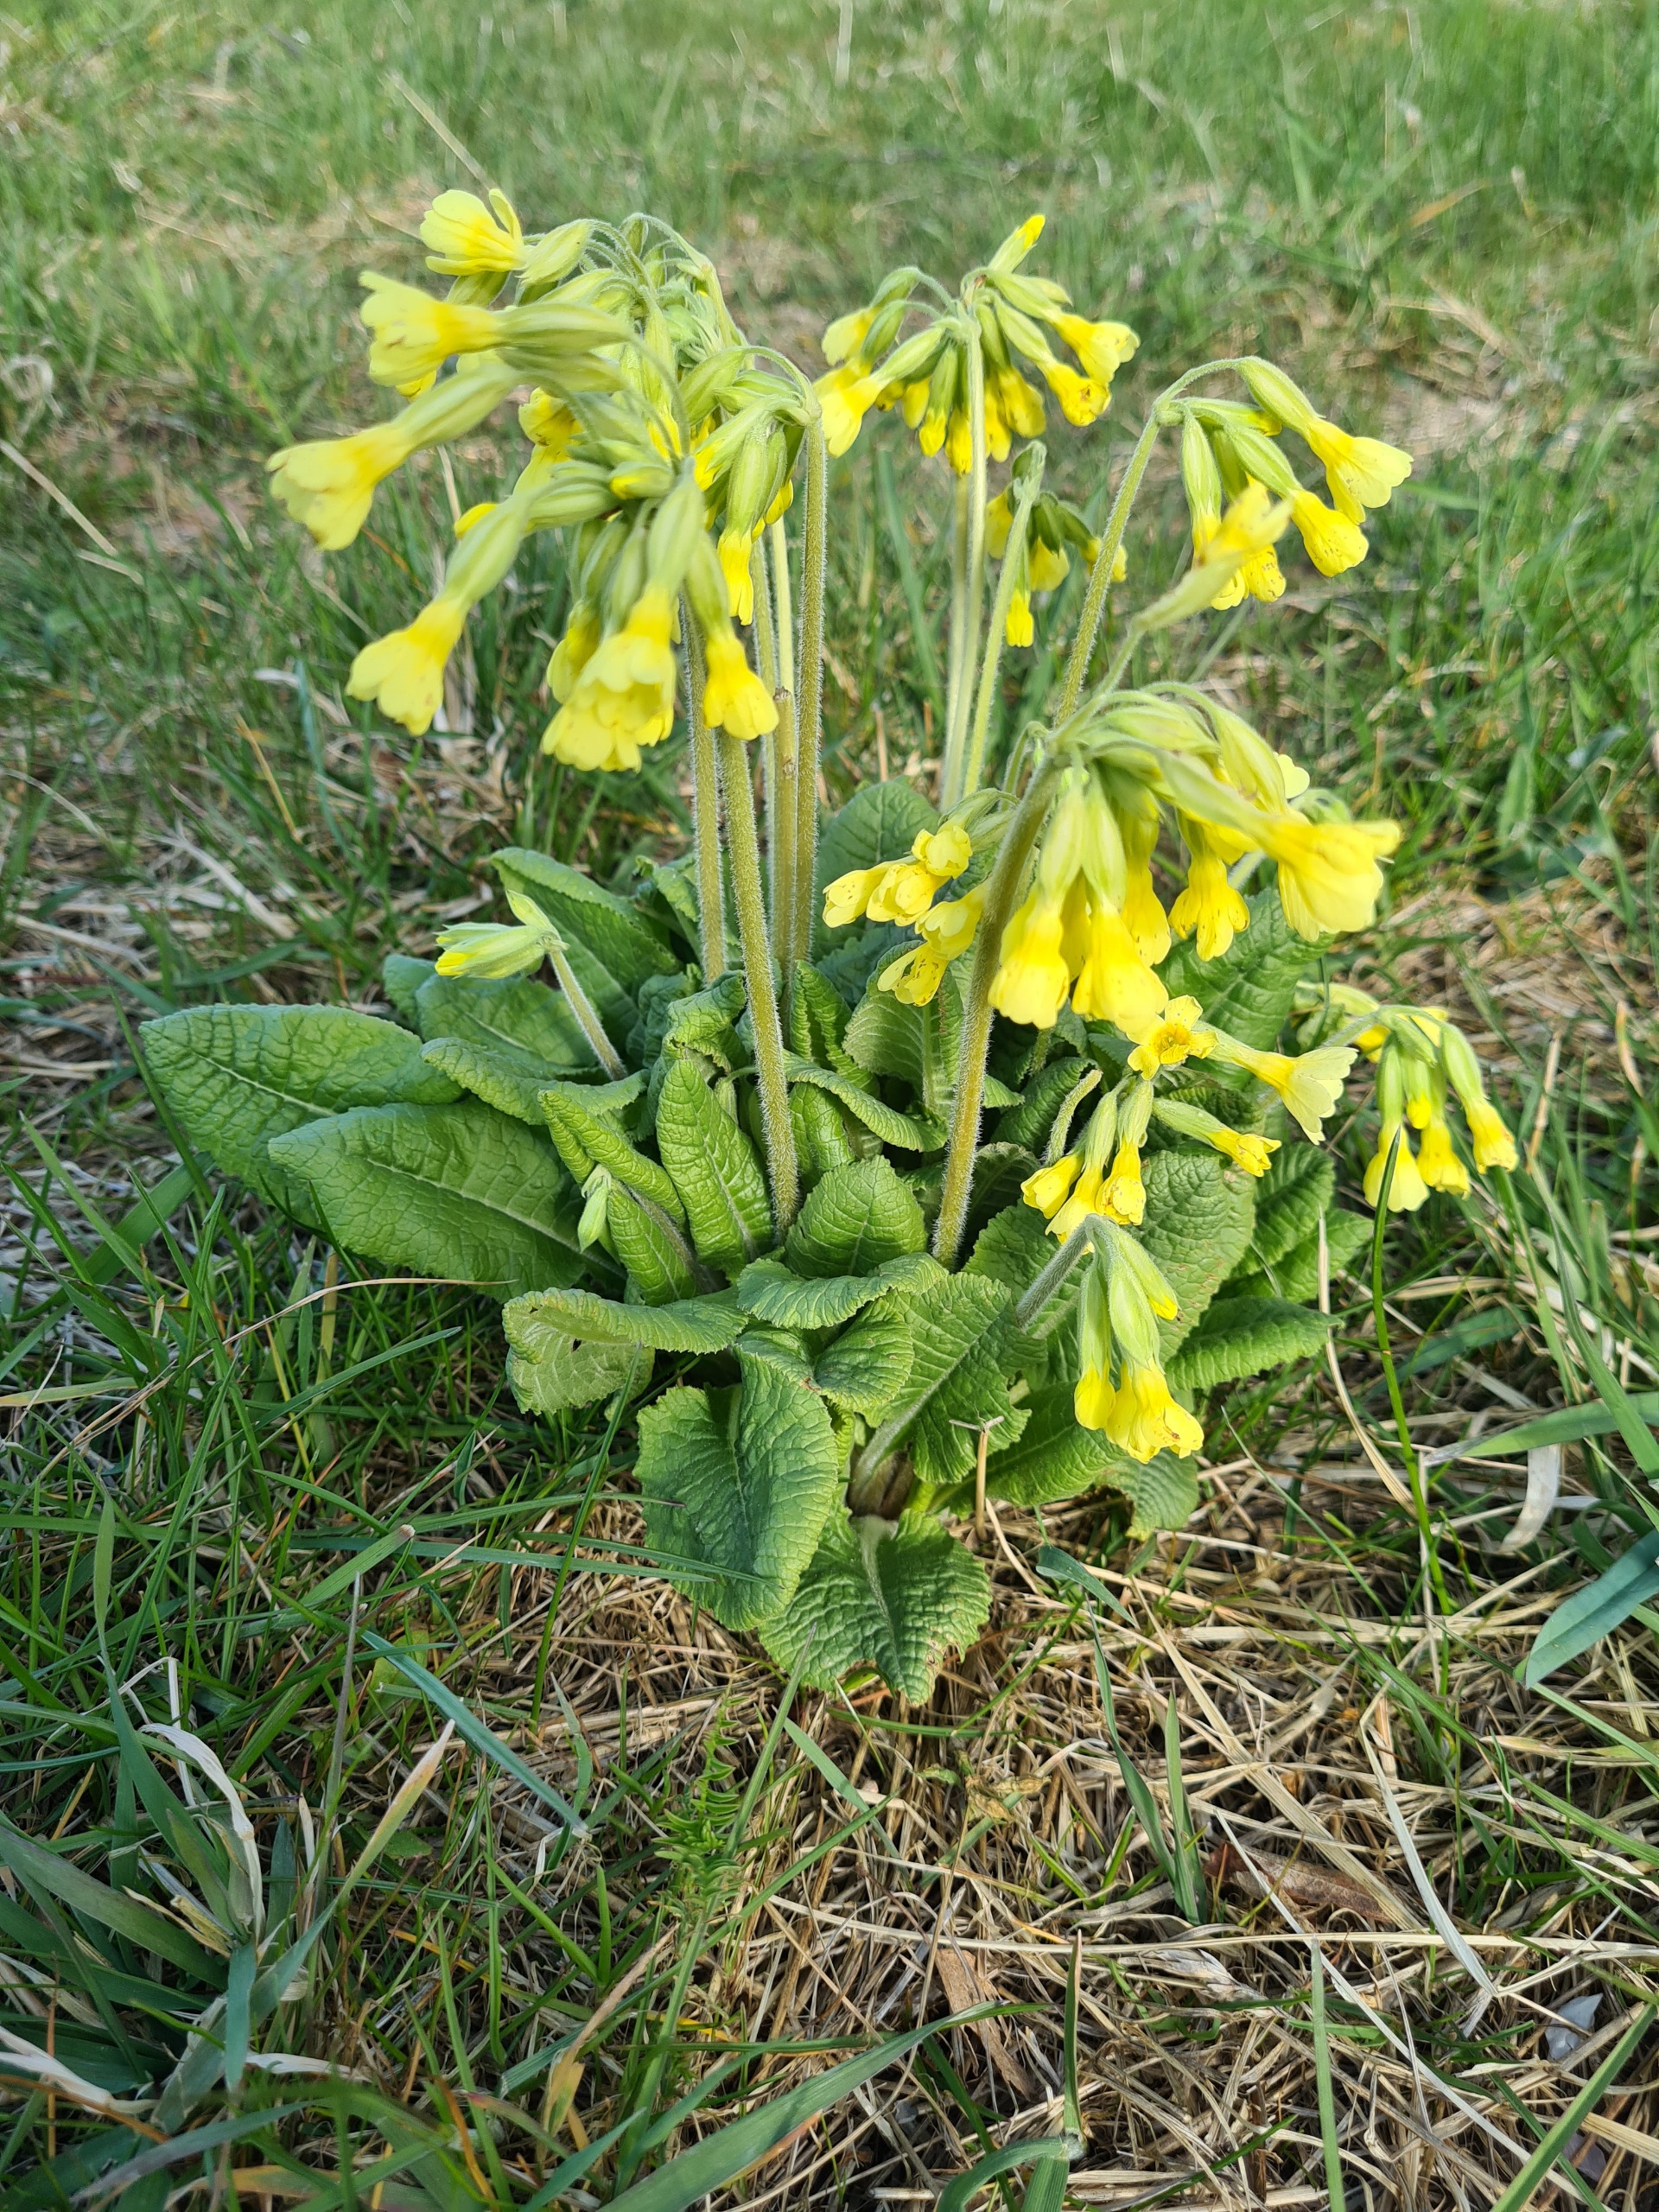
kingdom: Plantae
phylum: Tracheophyta
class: Magnoliopsida
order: Ericales
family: Primulaceae
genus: Primula
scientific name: Primula veris
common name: Hulkravet kodriver
